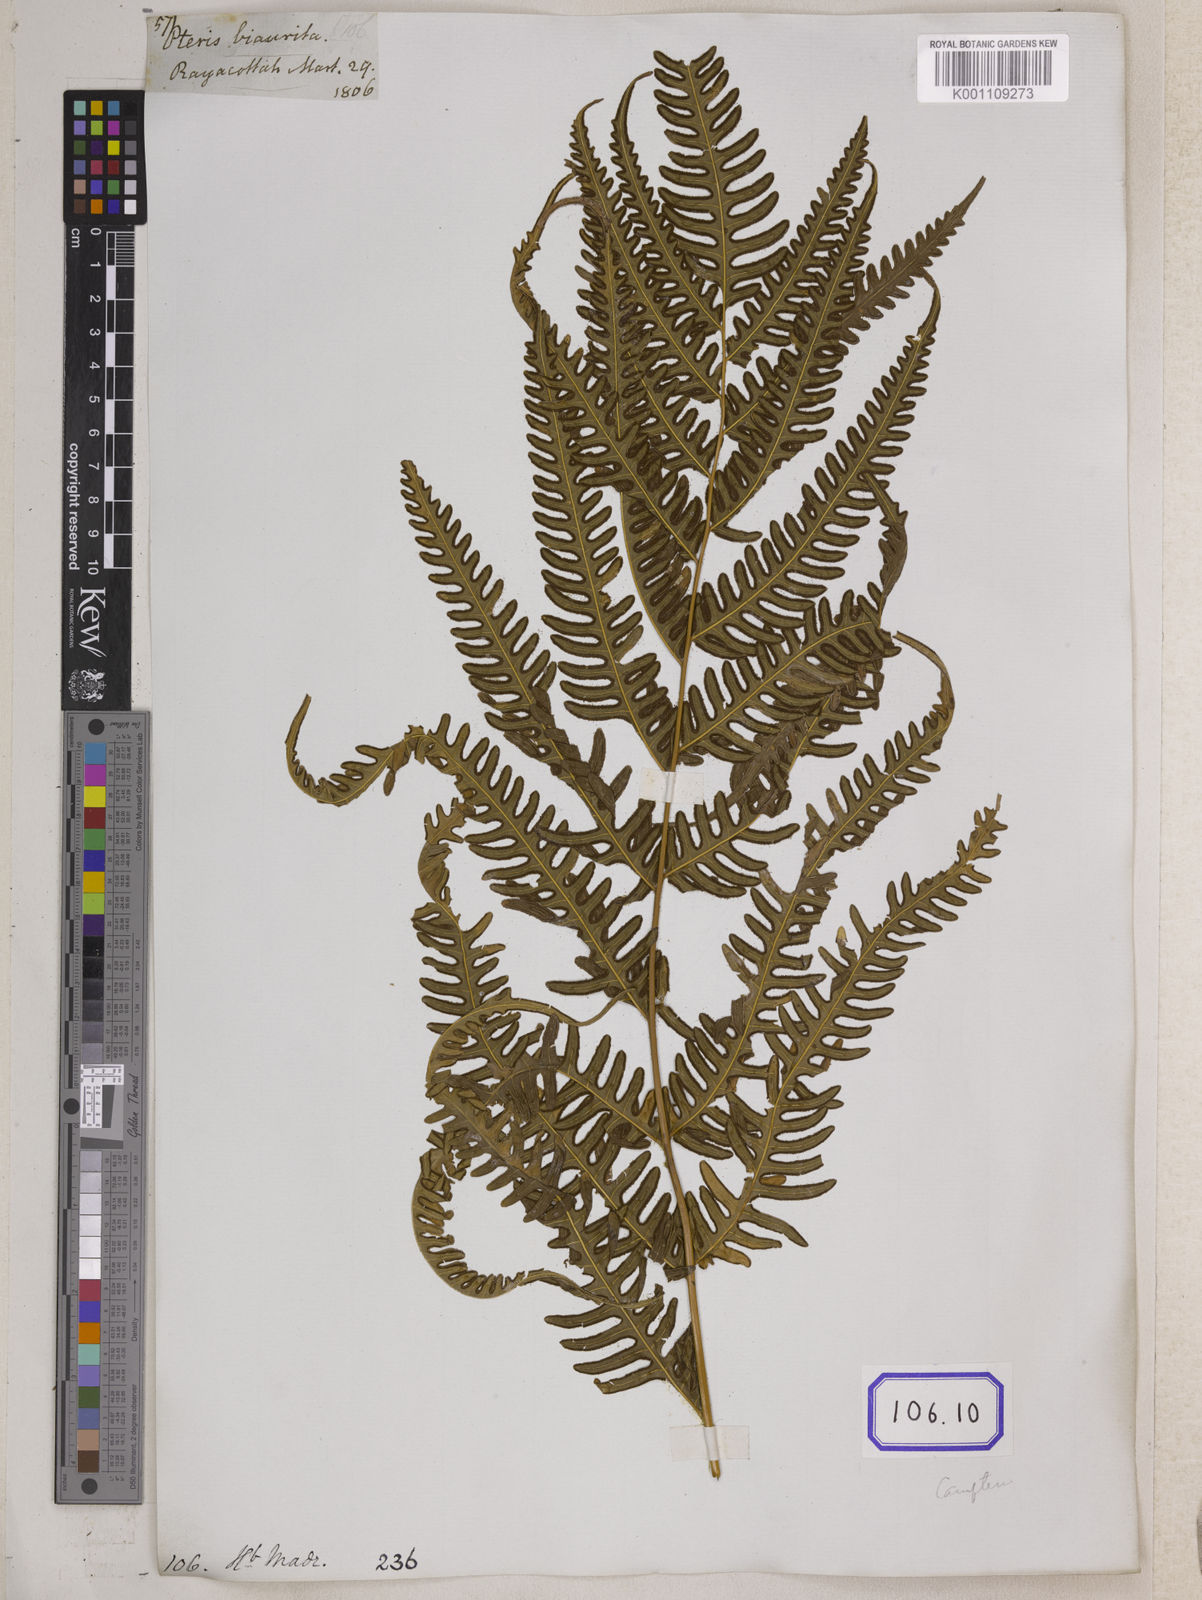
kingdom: Plantae
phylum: Tracheophyta
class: Polypodiopsida
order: Polypodiales
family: Pteridaceae
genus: Pteris
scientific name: Pteris linearis
